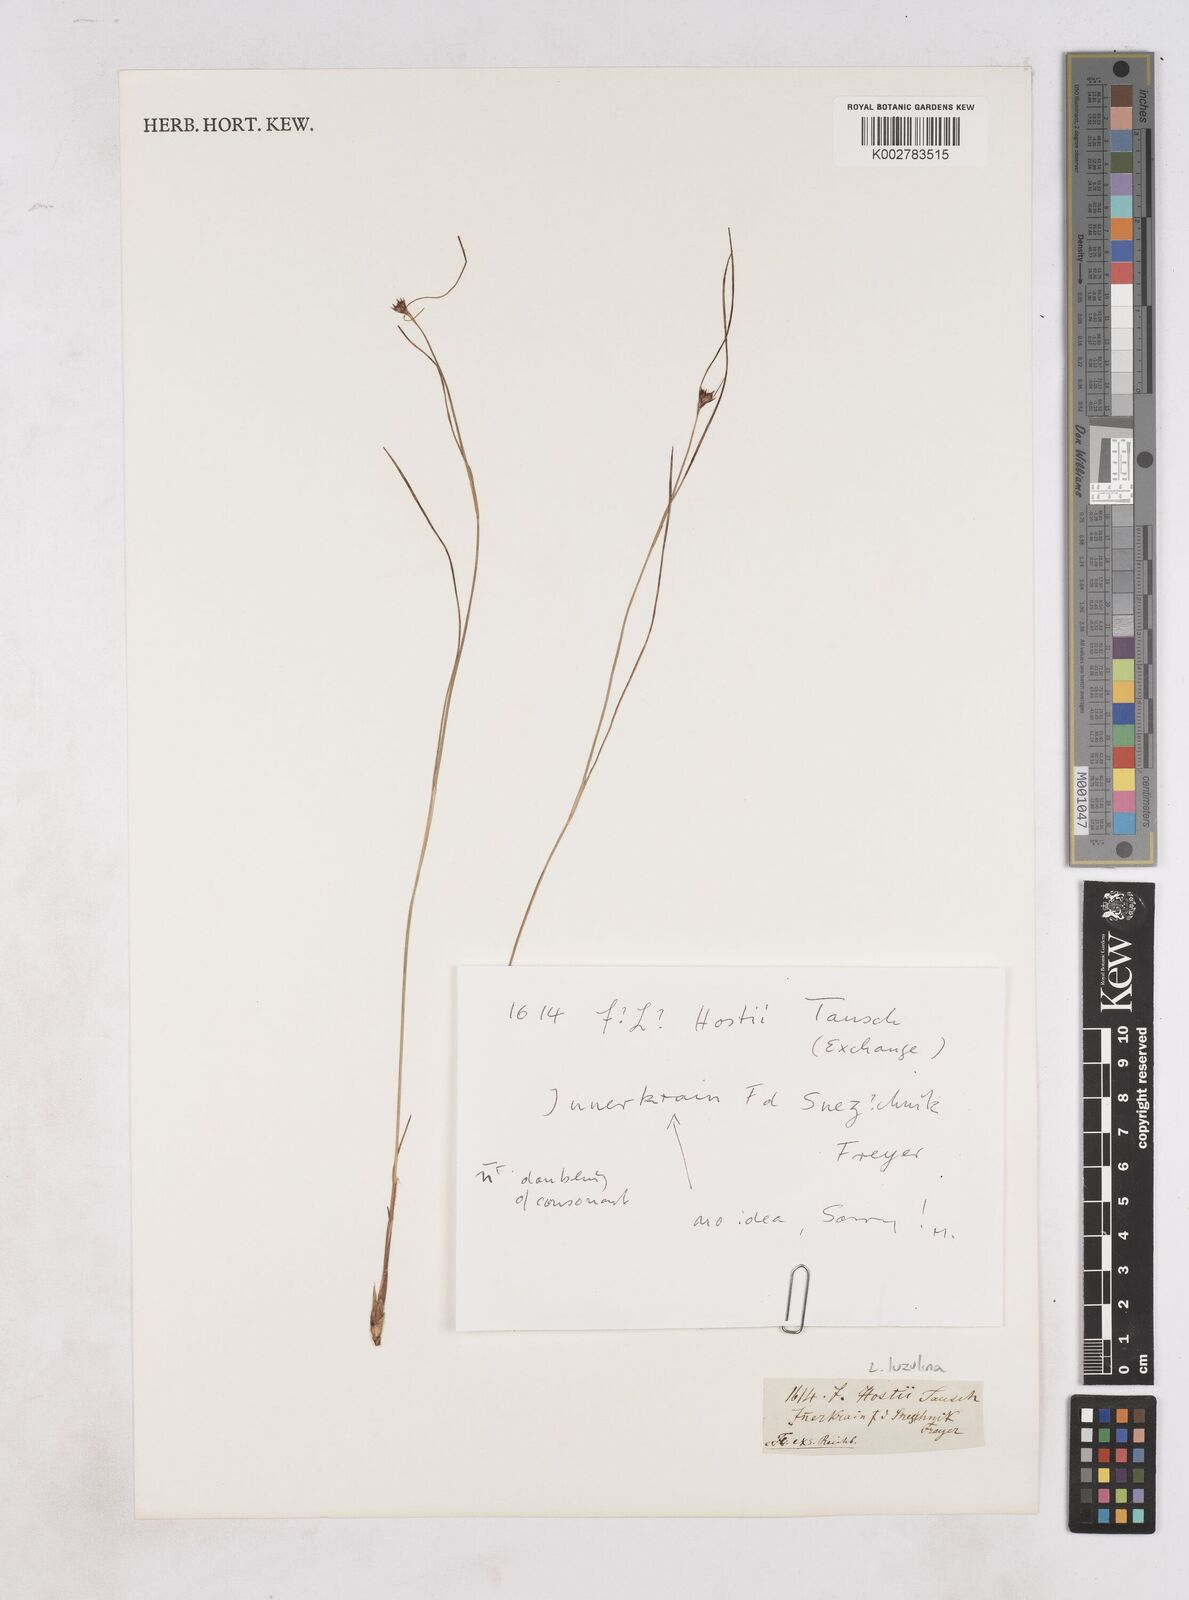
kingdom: Plantae
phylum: Tracheophyta
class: Liliopsida
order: Poales
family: Juncaceae
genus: Luzula
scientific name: Luzula luzulina
